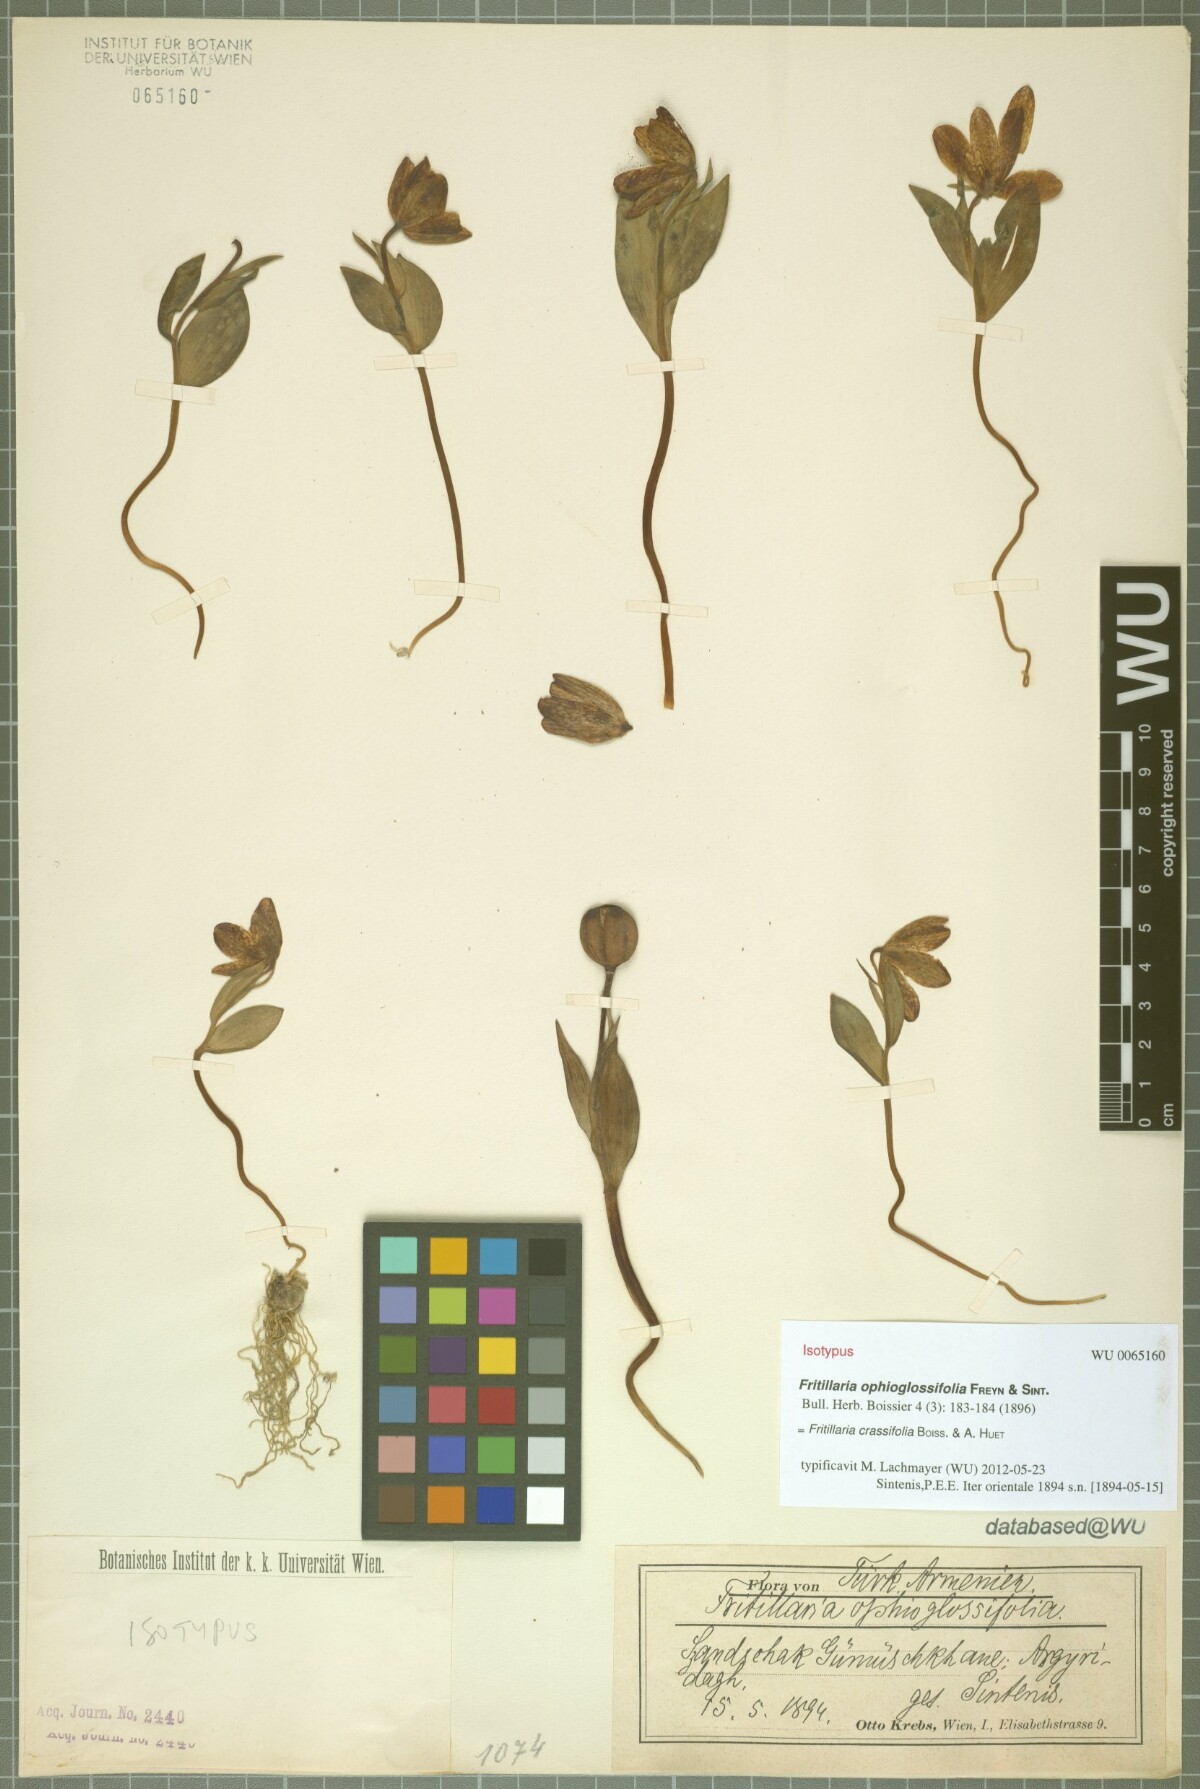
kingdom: Plantae
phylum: Tracheophyta
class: Liliopsida
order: Liliales
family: Liliaceae
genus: Fritillaria
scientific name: Fritillaria crassifolia
